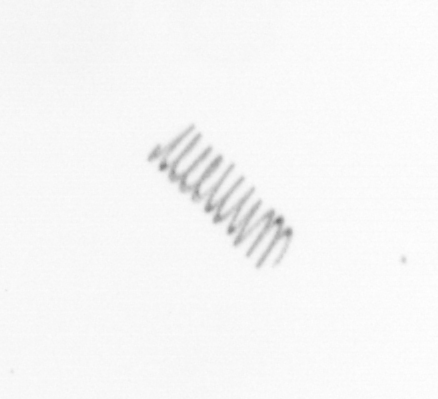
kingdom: Chromista
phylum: Ochrophyta
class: Bacillariophyceae
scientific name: Bacillariophyceae
